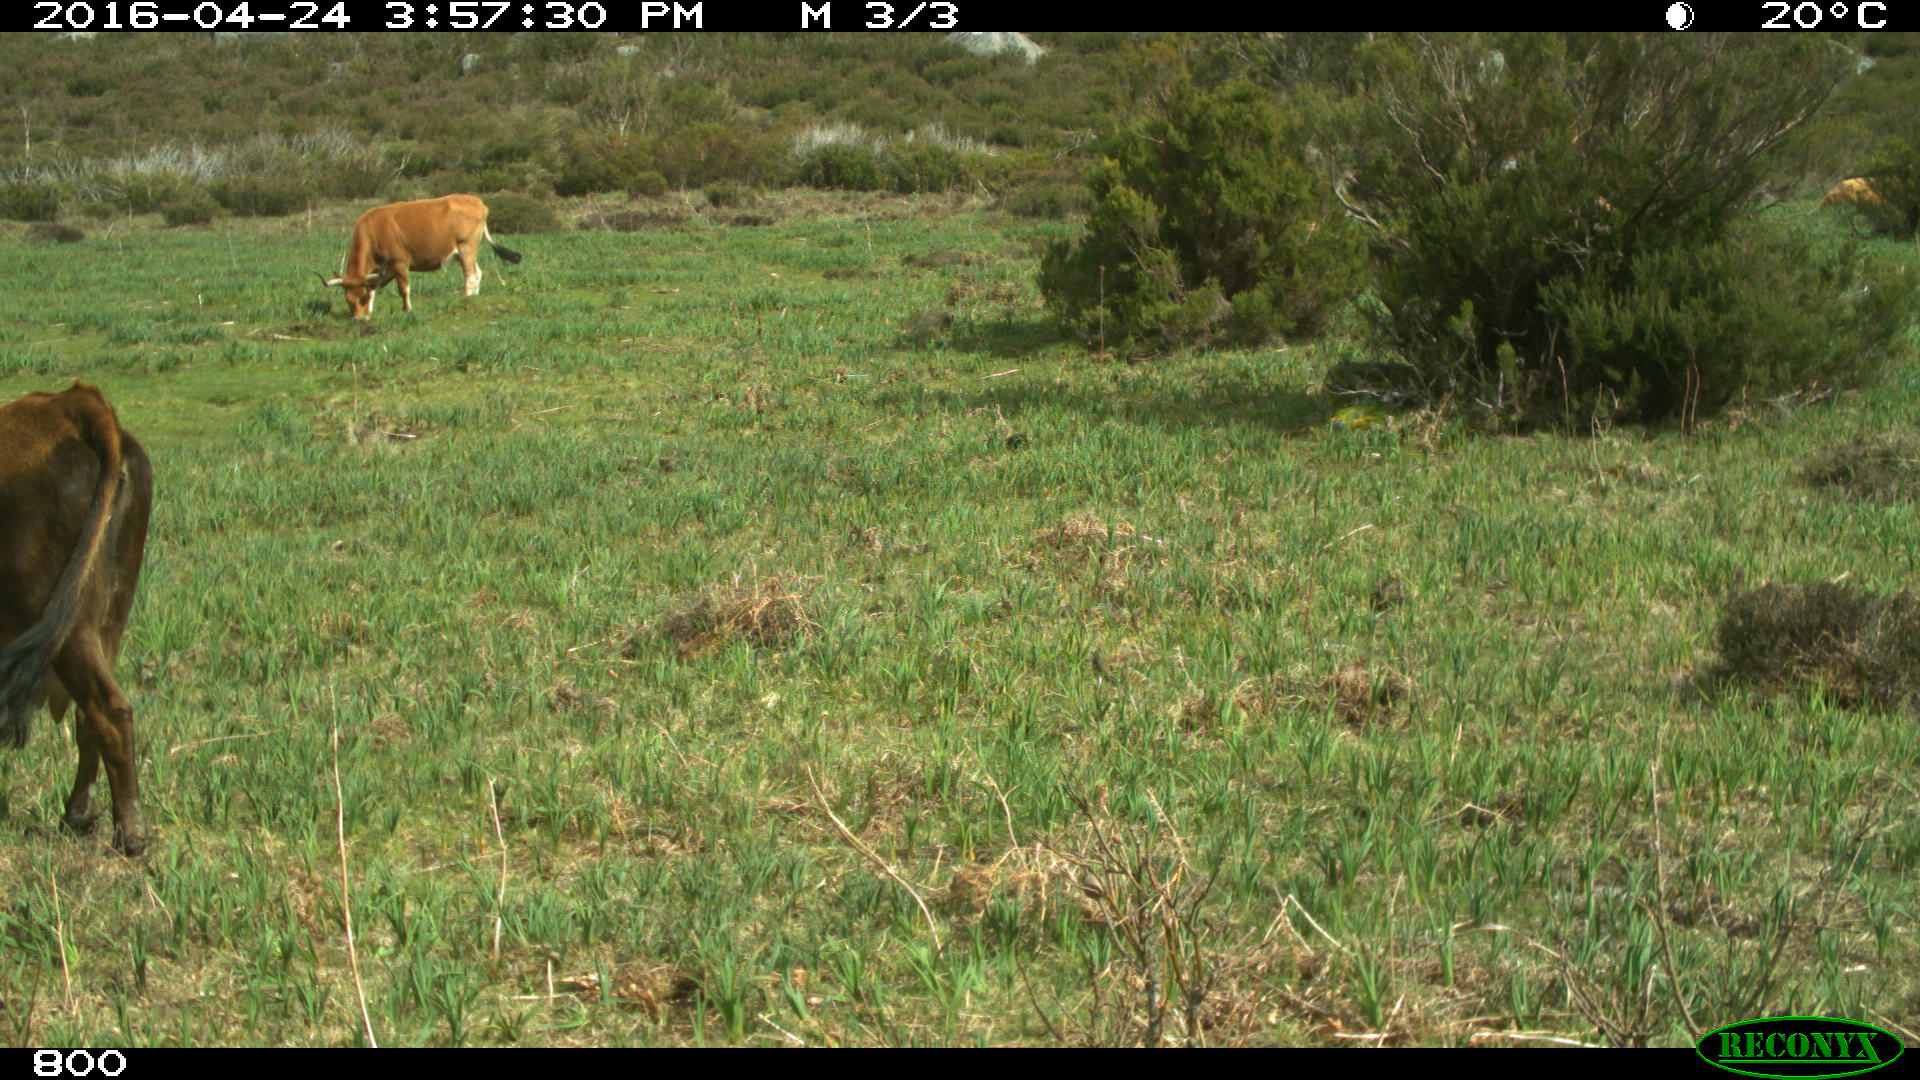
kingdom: Animalia
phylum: Chordata
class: Mammalia
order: Artiodactyla
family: Bovidae
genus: Bos
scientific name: Bos taurus
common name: Domesticated cattle
